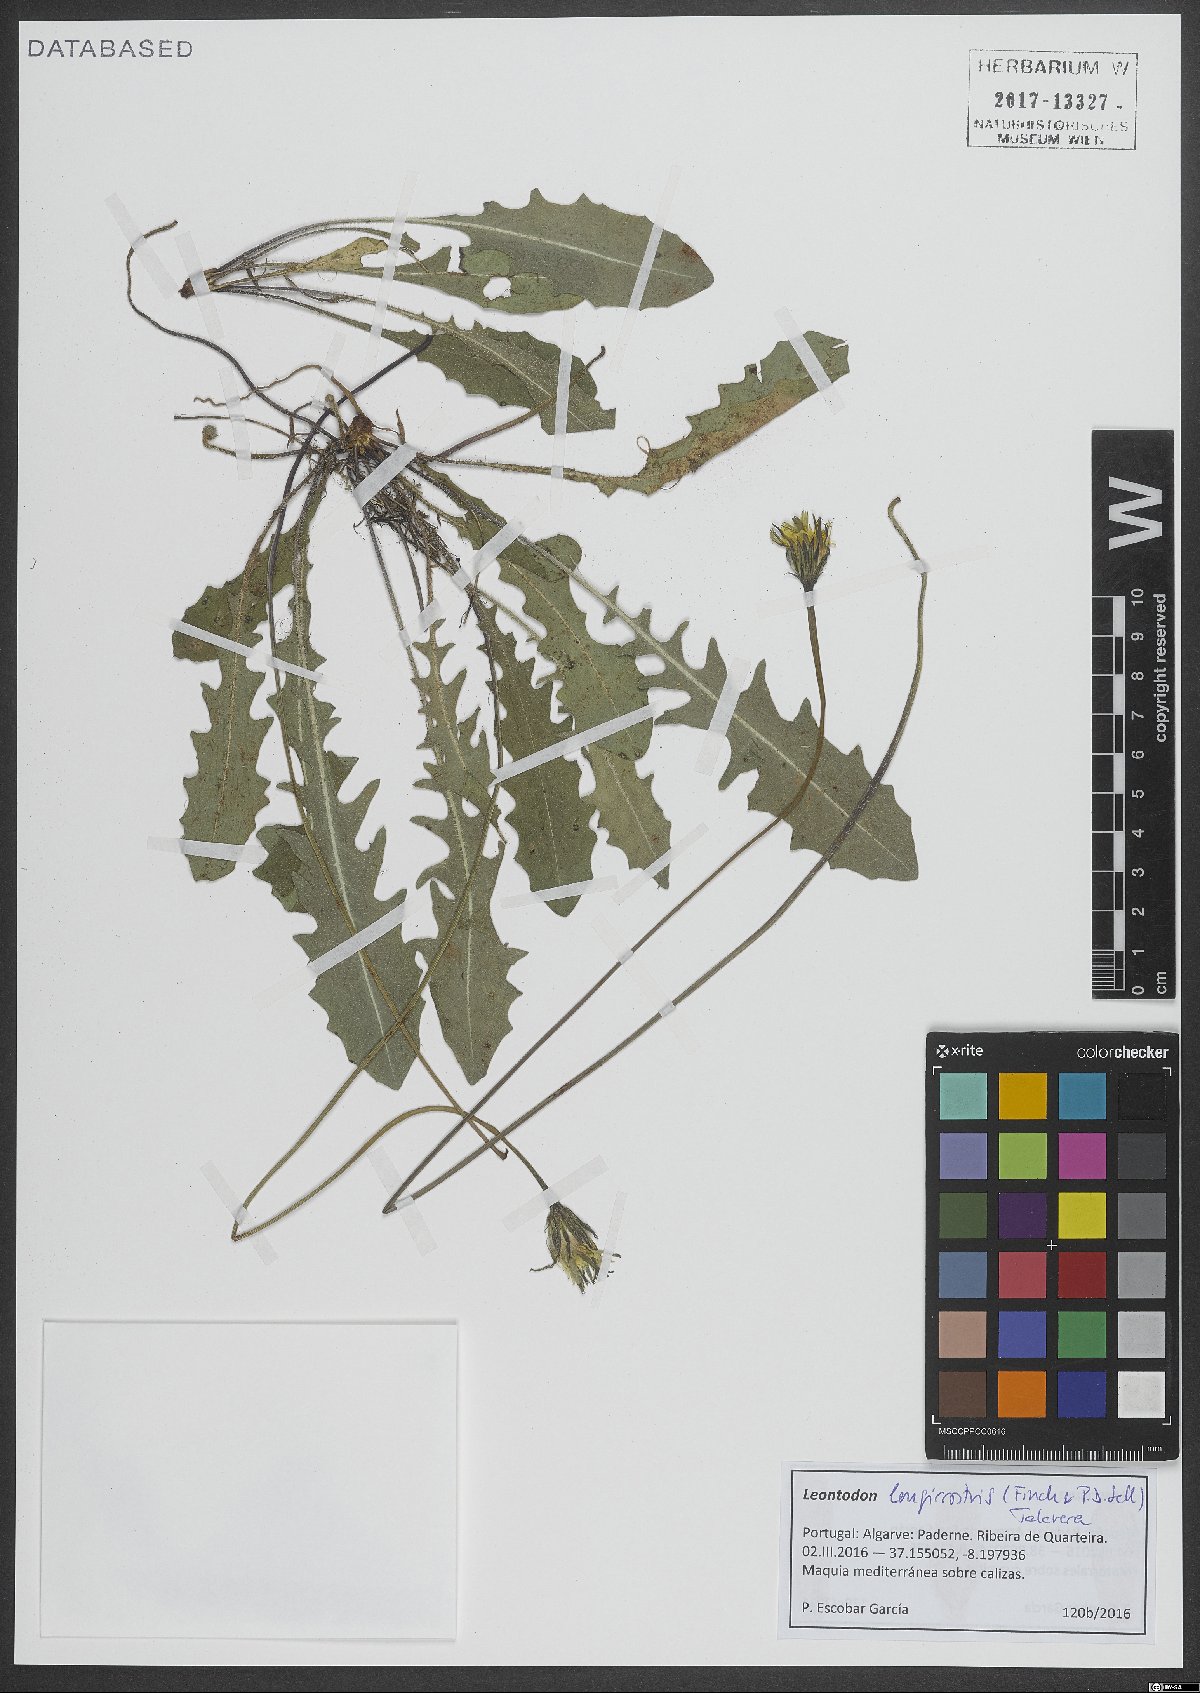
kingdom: Plantae
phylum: Tracheophyta
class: Magnoliopsida
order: Asterales
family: Asteraceae
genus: Thrincia
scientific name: Thrincia hispida
